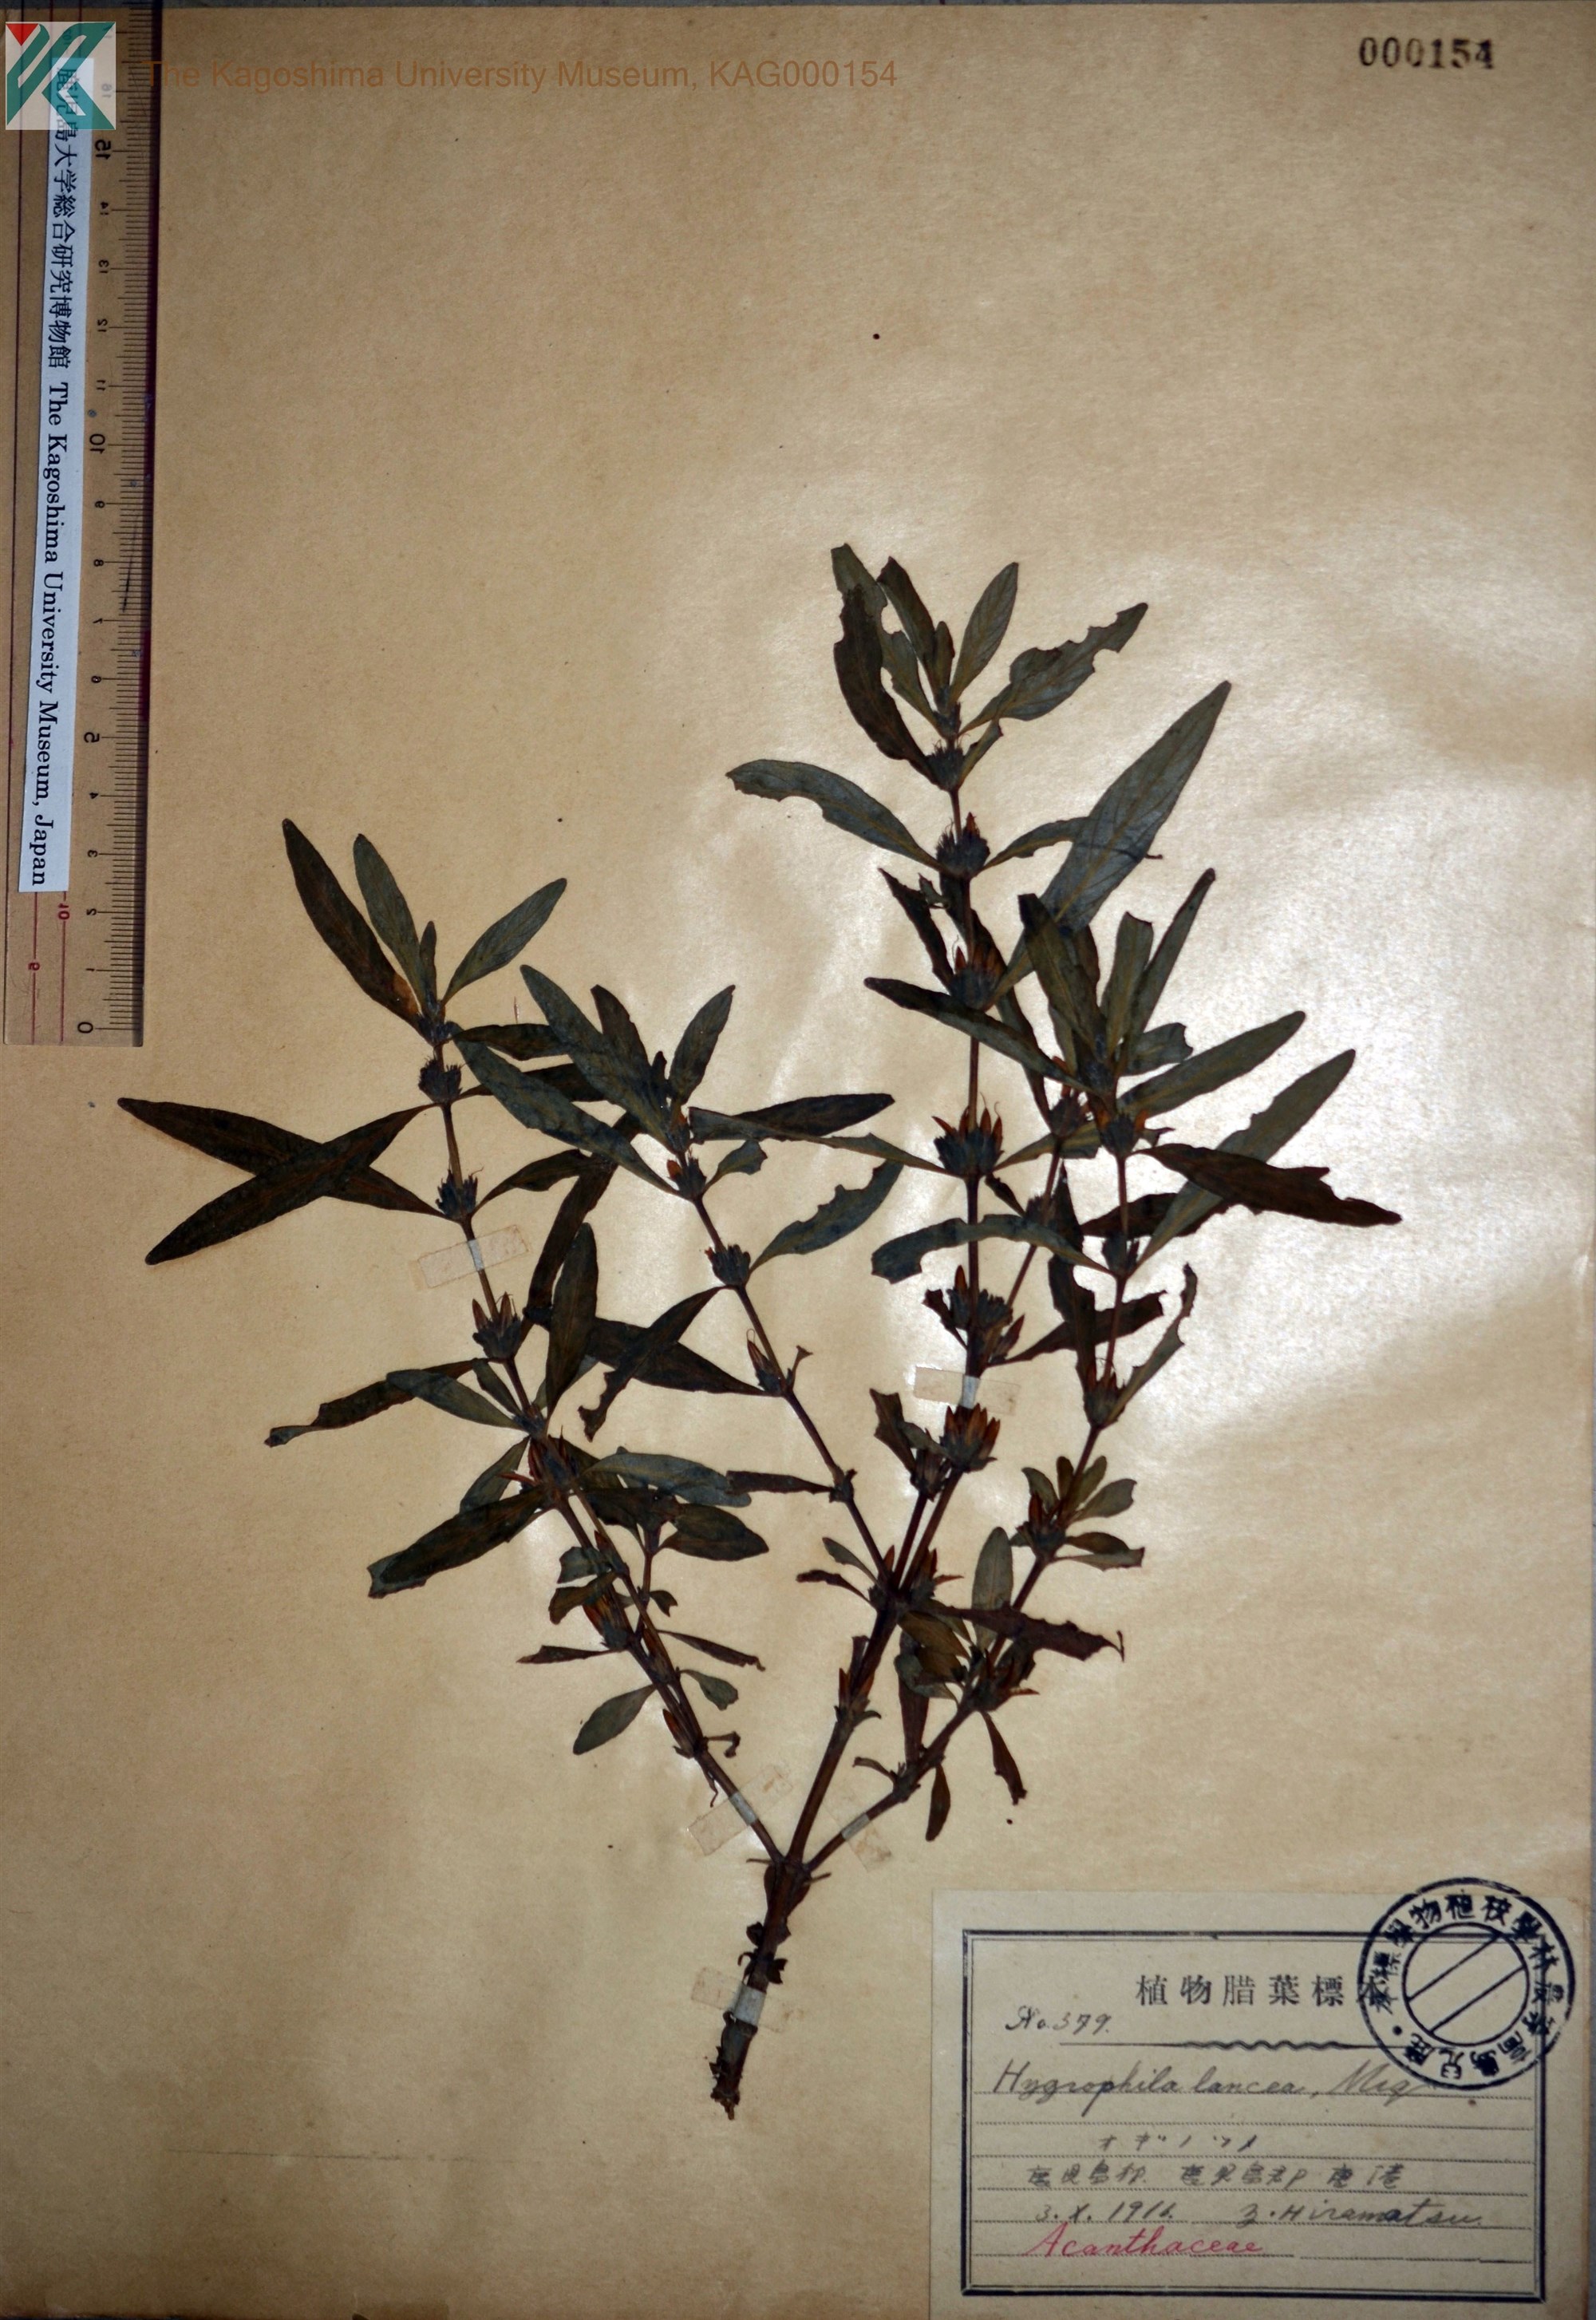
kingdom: Plantae
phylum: Tracheophyta
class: Magnoliopsida
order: Lamiales
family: Acanthaceae
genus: Hygrophila
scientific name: Hygrophila ringens
